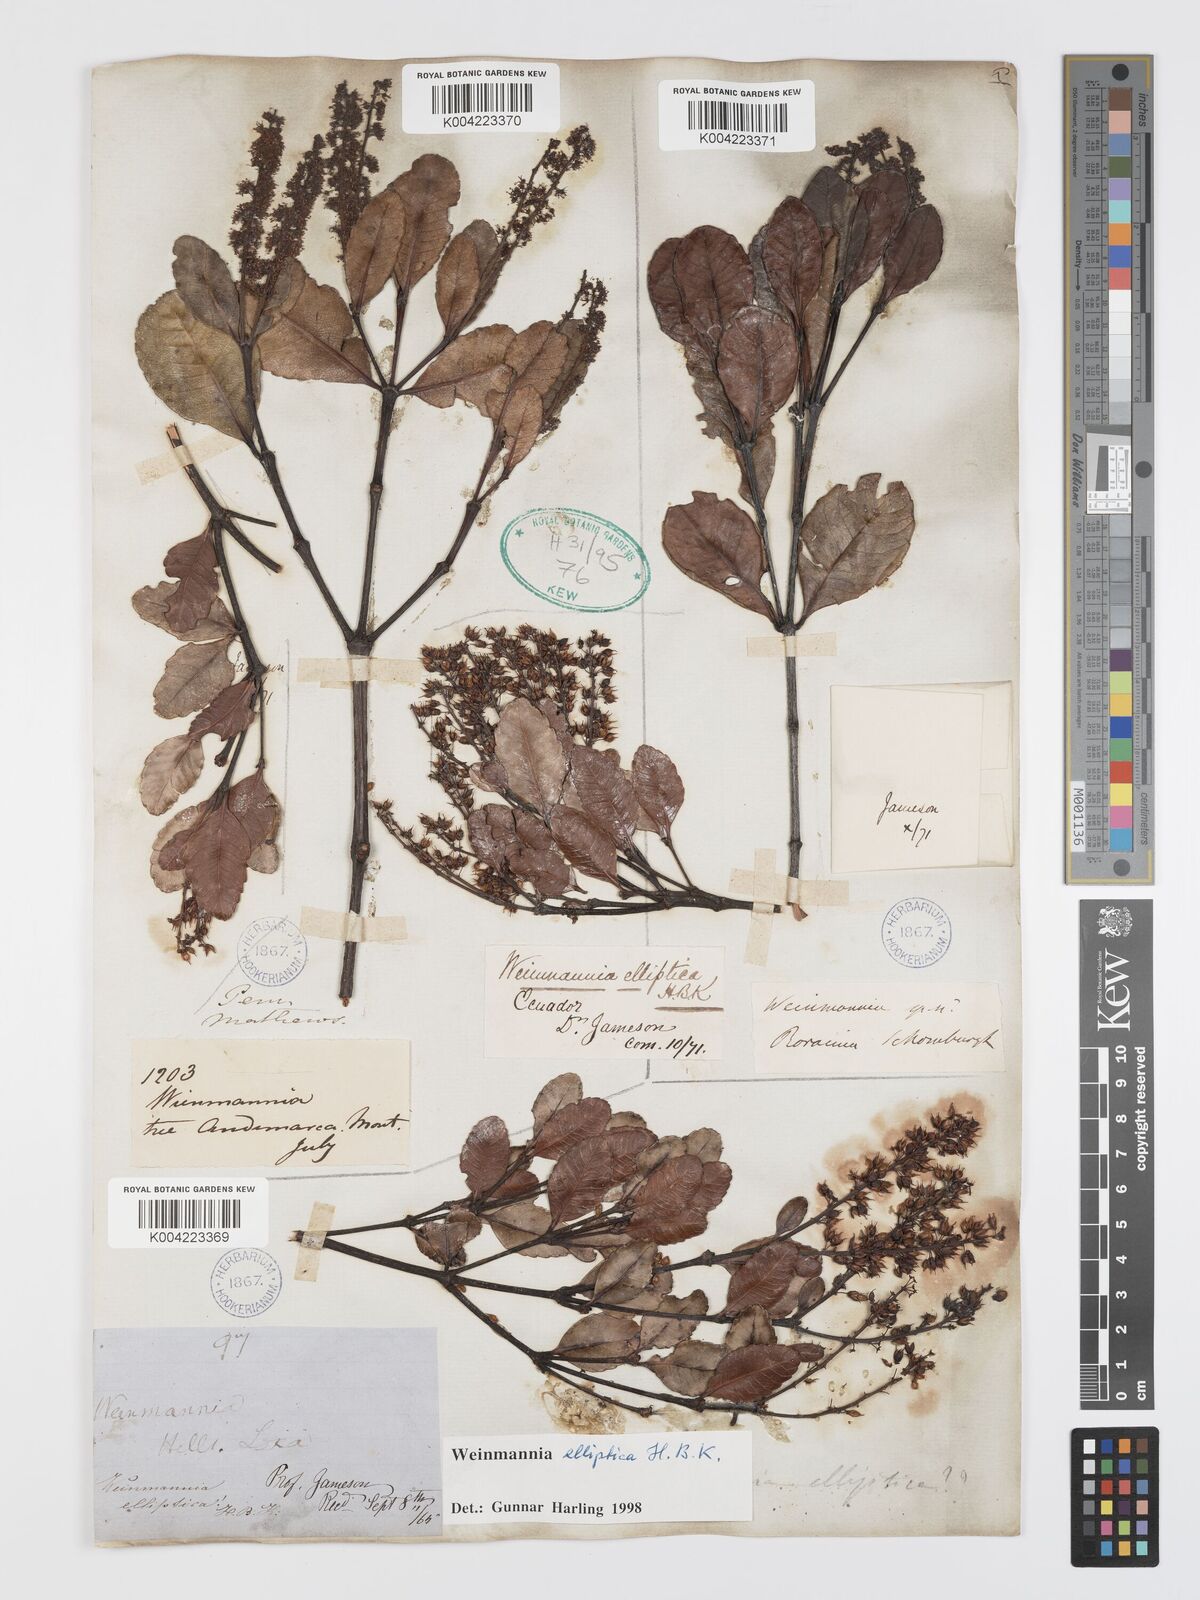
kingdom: Plantae
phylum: Tracheophyta
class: Magnoliopsida
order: Oxalidales
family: Cunoniaceae
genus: Weinmannia
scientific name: Weinmannia elliptica
